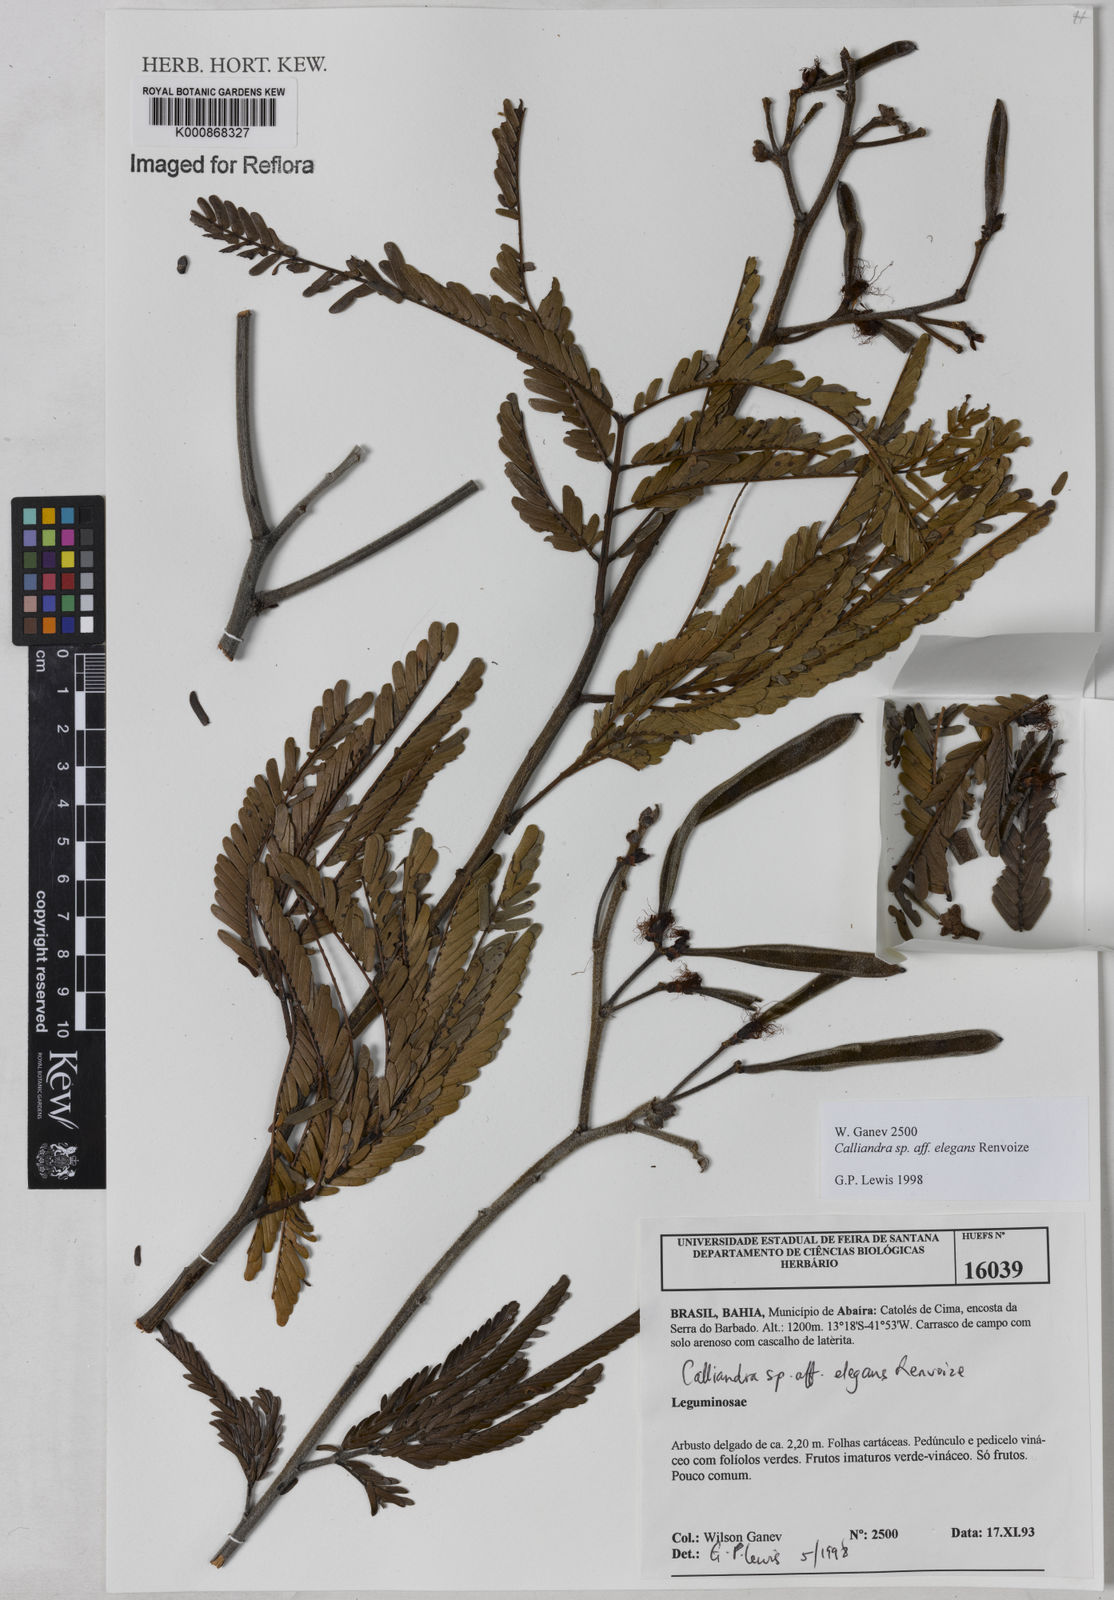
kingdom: Plantae
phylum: Tracheophyta
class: Magnoliopsida
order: Fabales
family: Fabaceae
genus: Calliandra
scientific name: Calliandra elegans
